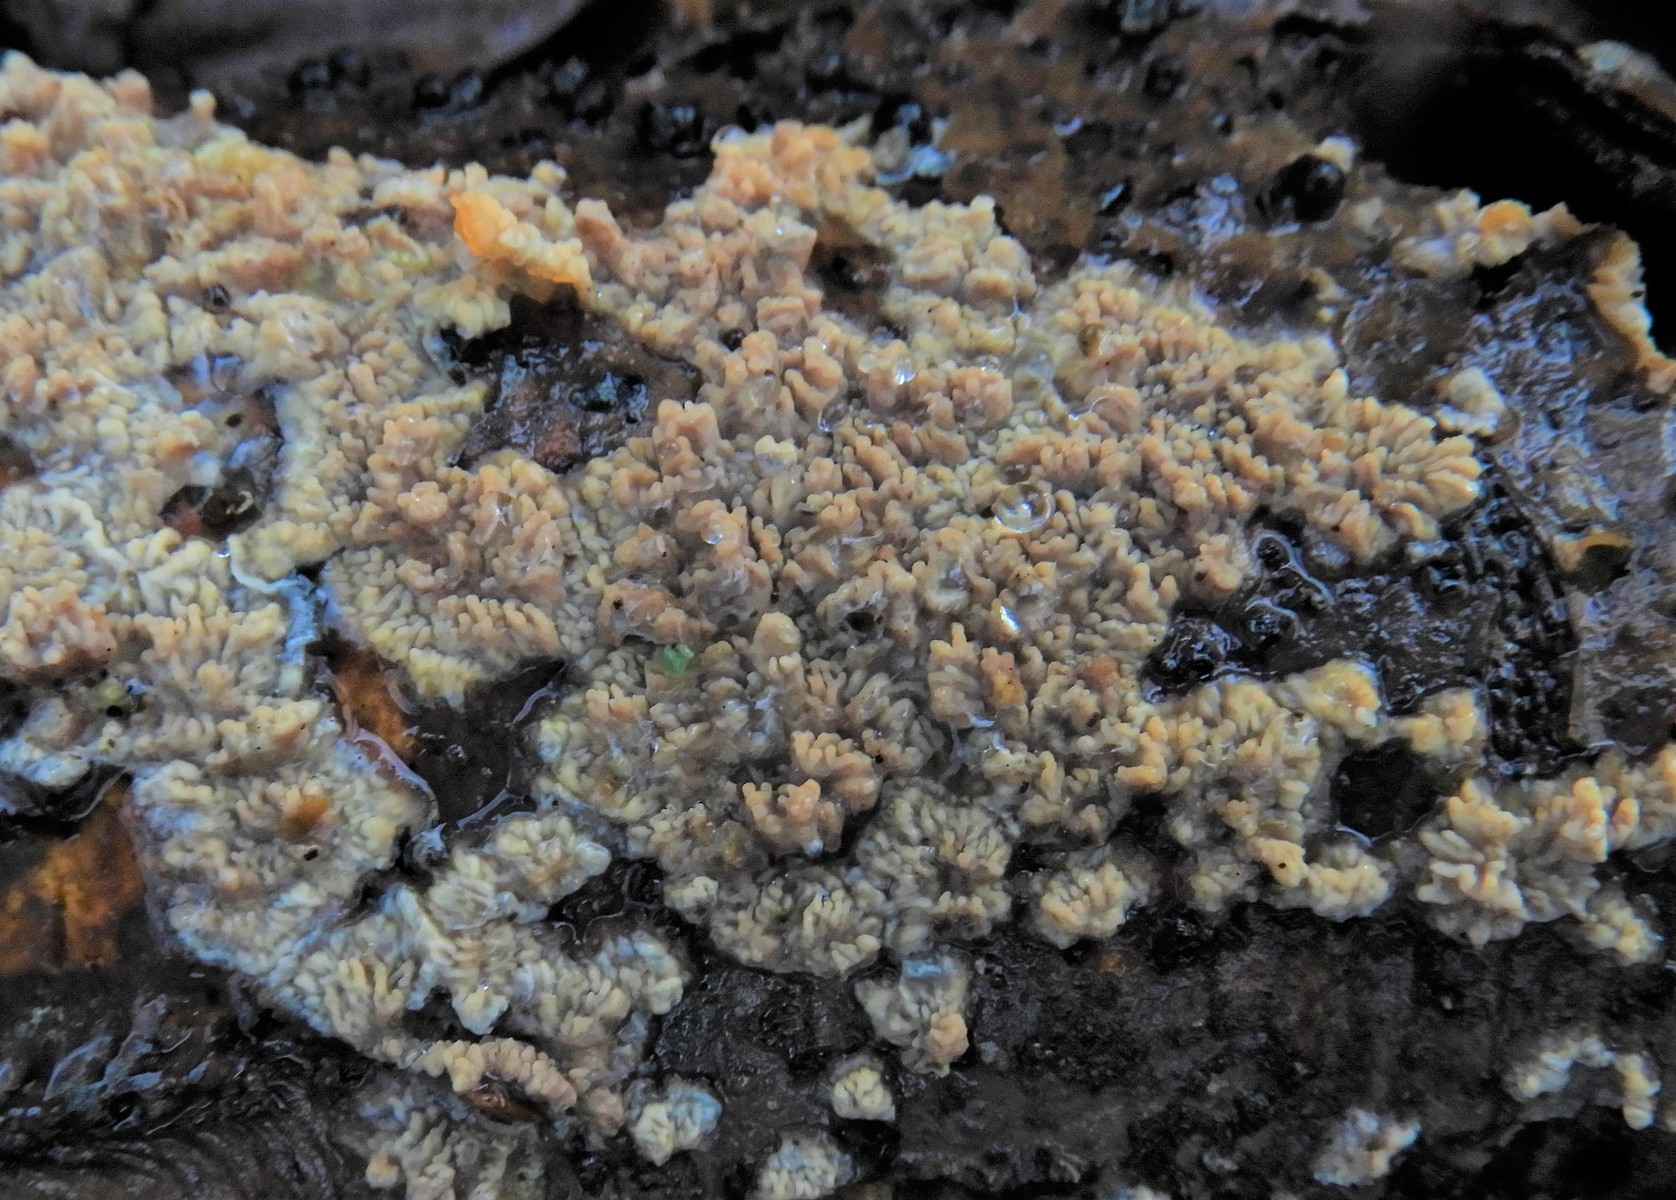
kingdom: Fungi
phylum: Basidiomycota
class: Agaricomycetes
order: Polyporales
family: Meruliaceae
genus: Phlebia
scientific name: Phlebia radiata
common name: stråle-åresvamp
